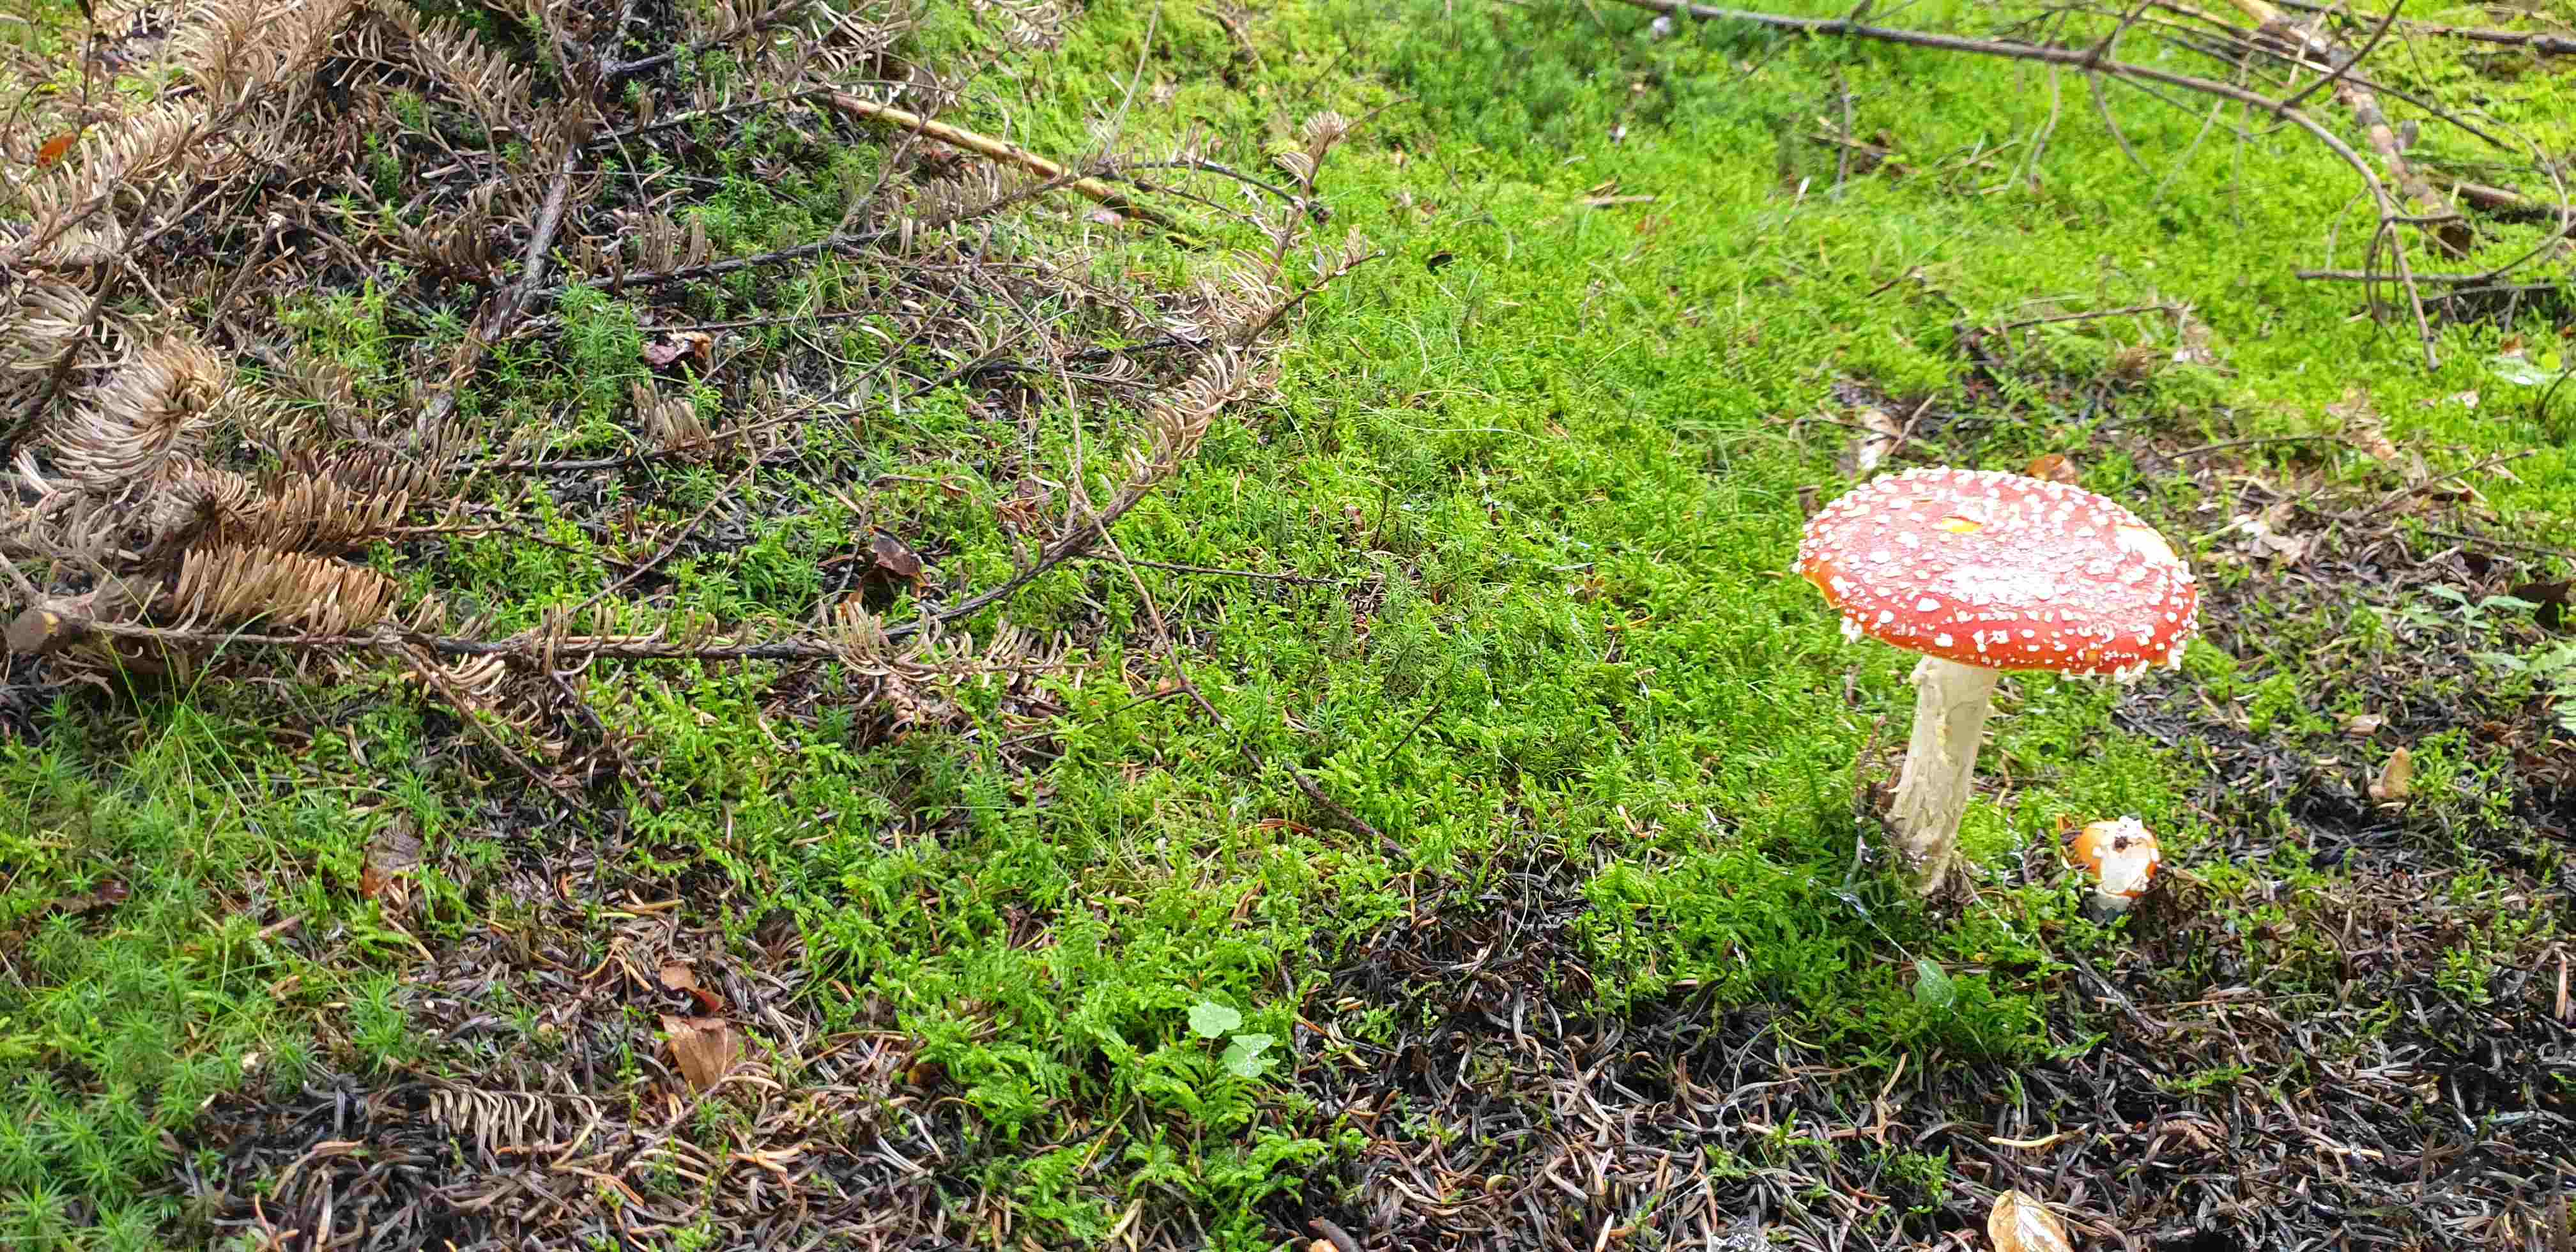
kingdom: Fungi
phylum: Basidiomycota
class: Agaricomycetes
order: Agaricales
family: Amanitaceae
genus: Amanita
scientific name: Amanita muscaria
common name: rød fluesvamp
